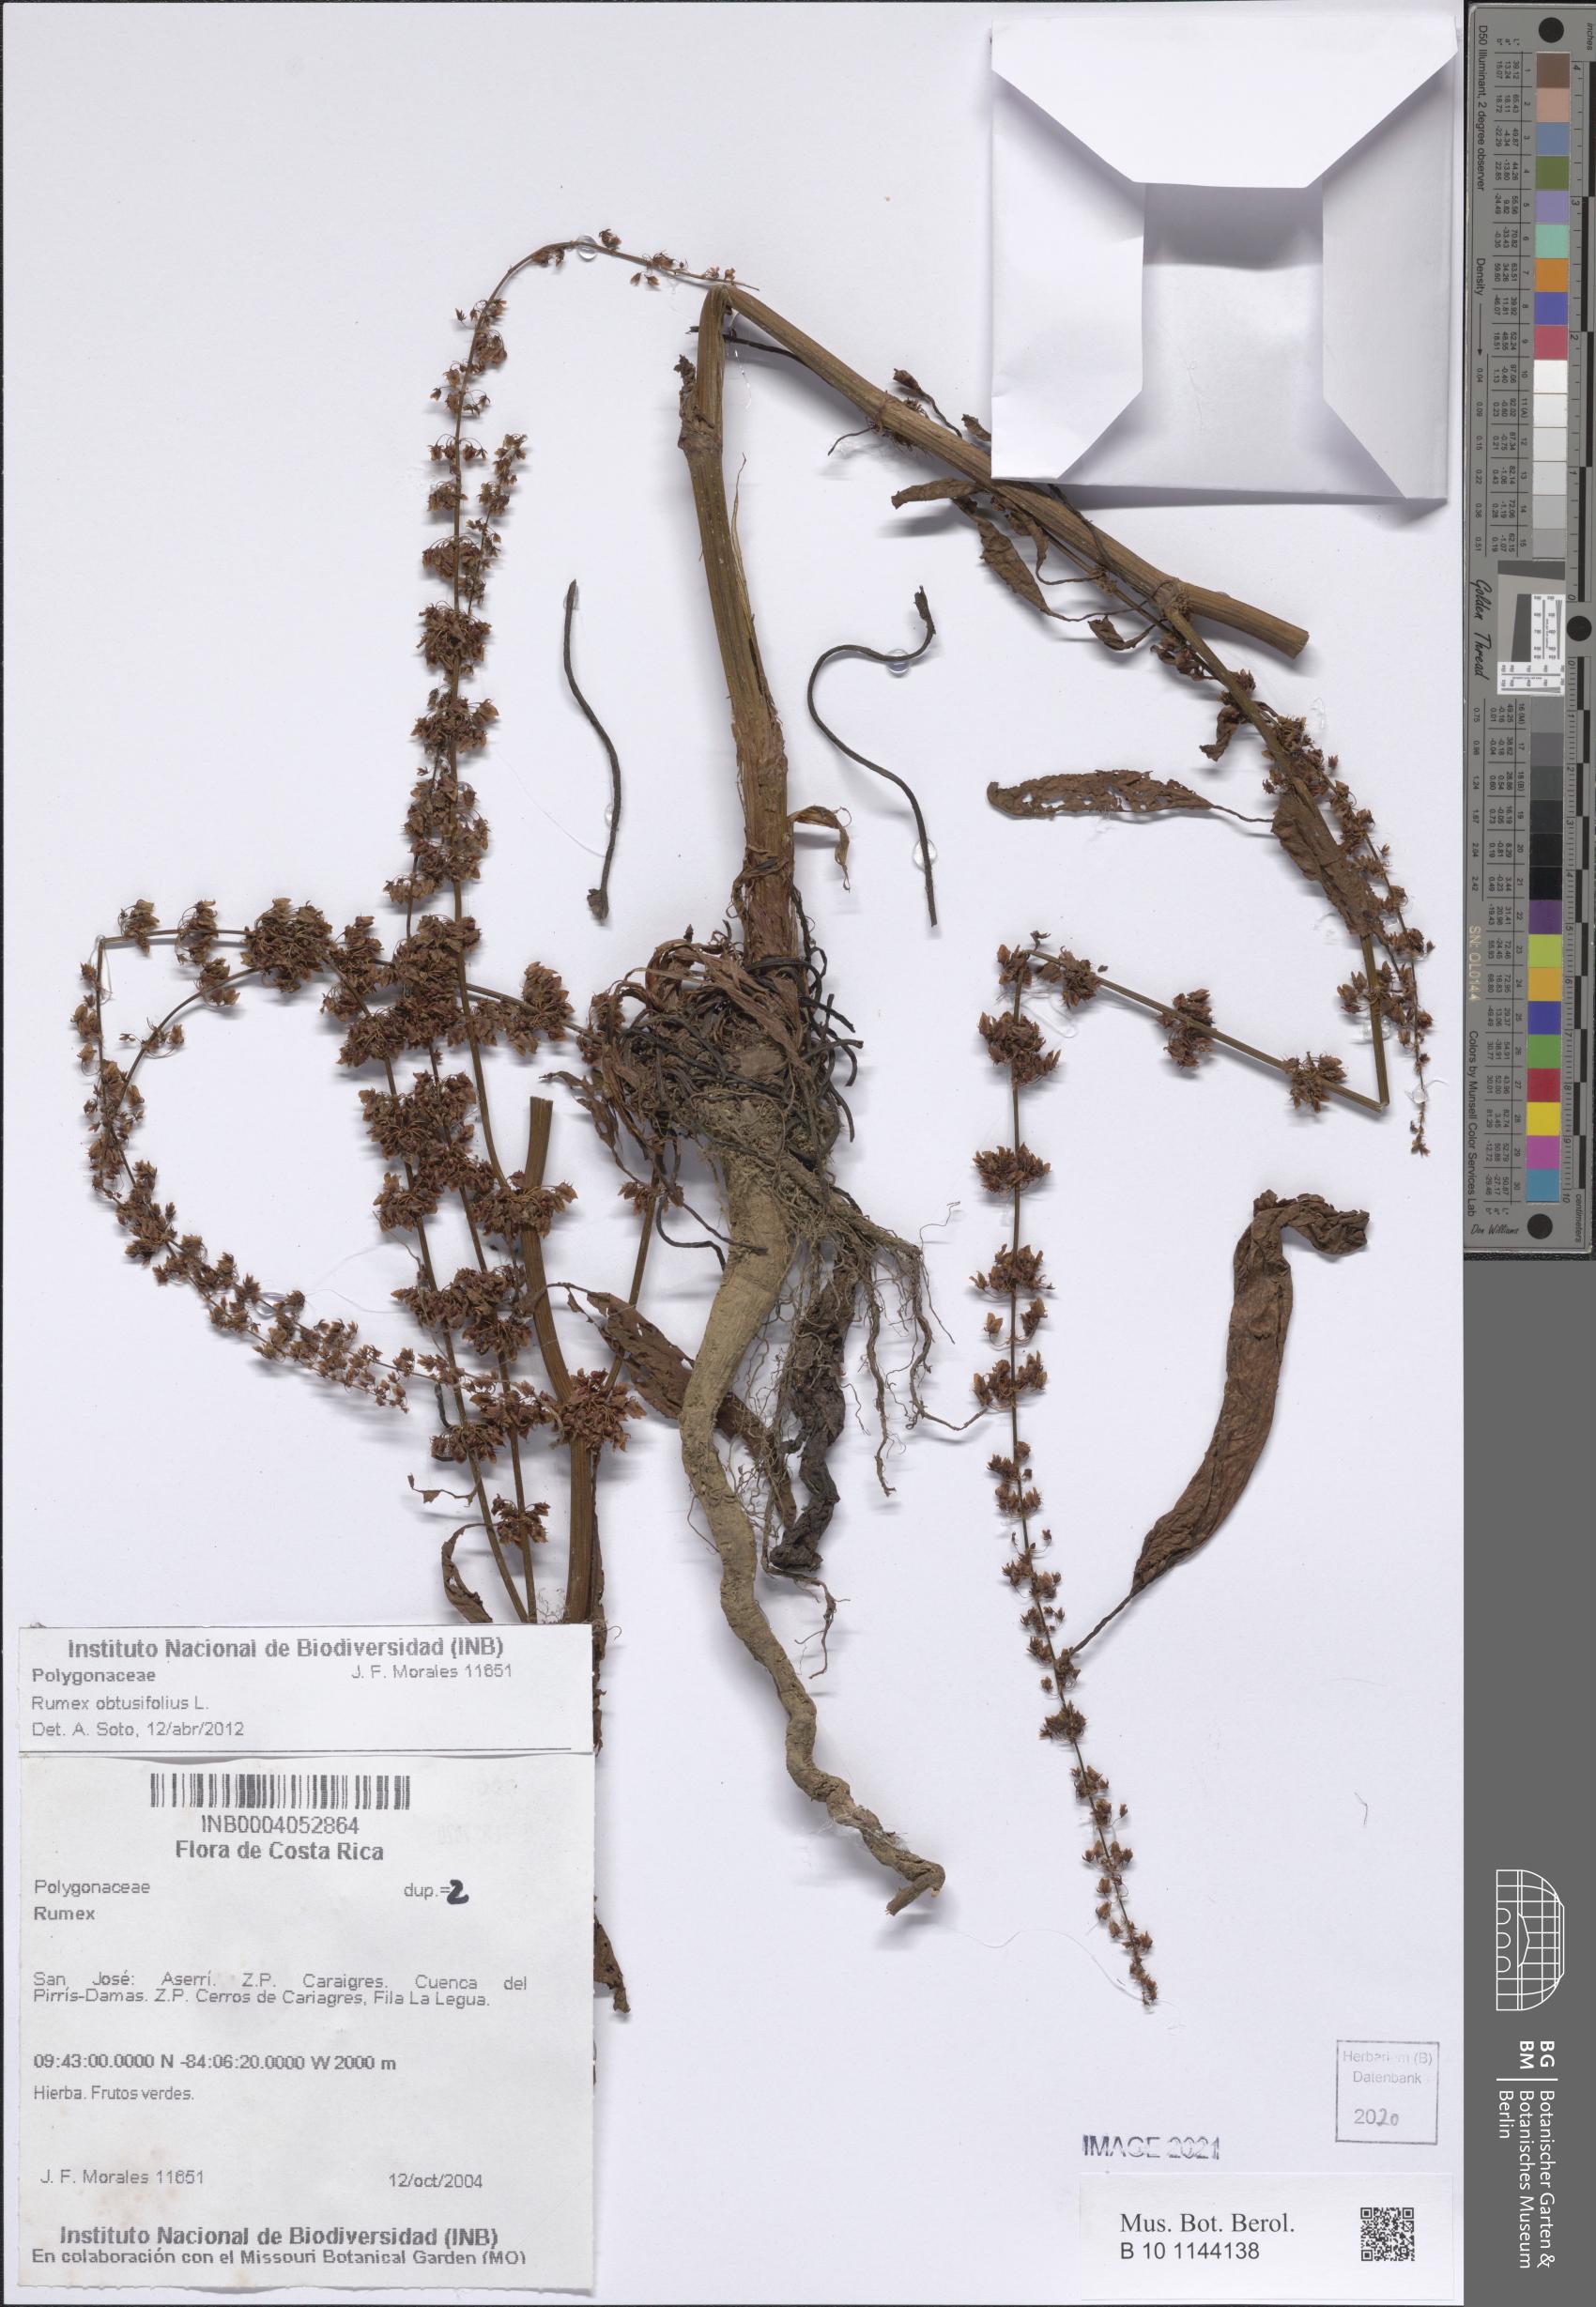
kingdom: Plantae
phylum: Tracheophyta
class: Magnoliopsida
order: Caryophyllales
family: Polygonaceae
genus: Rumex
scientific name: Rumex obtusifolius
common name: Bitter dock
